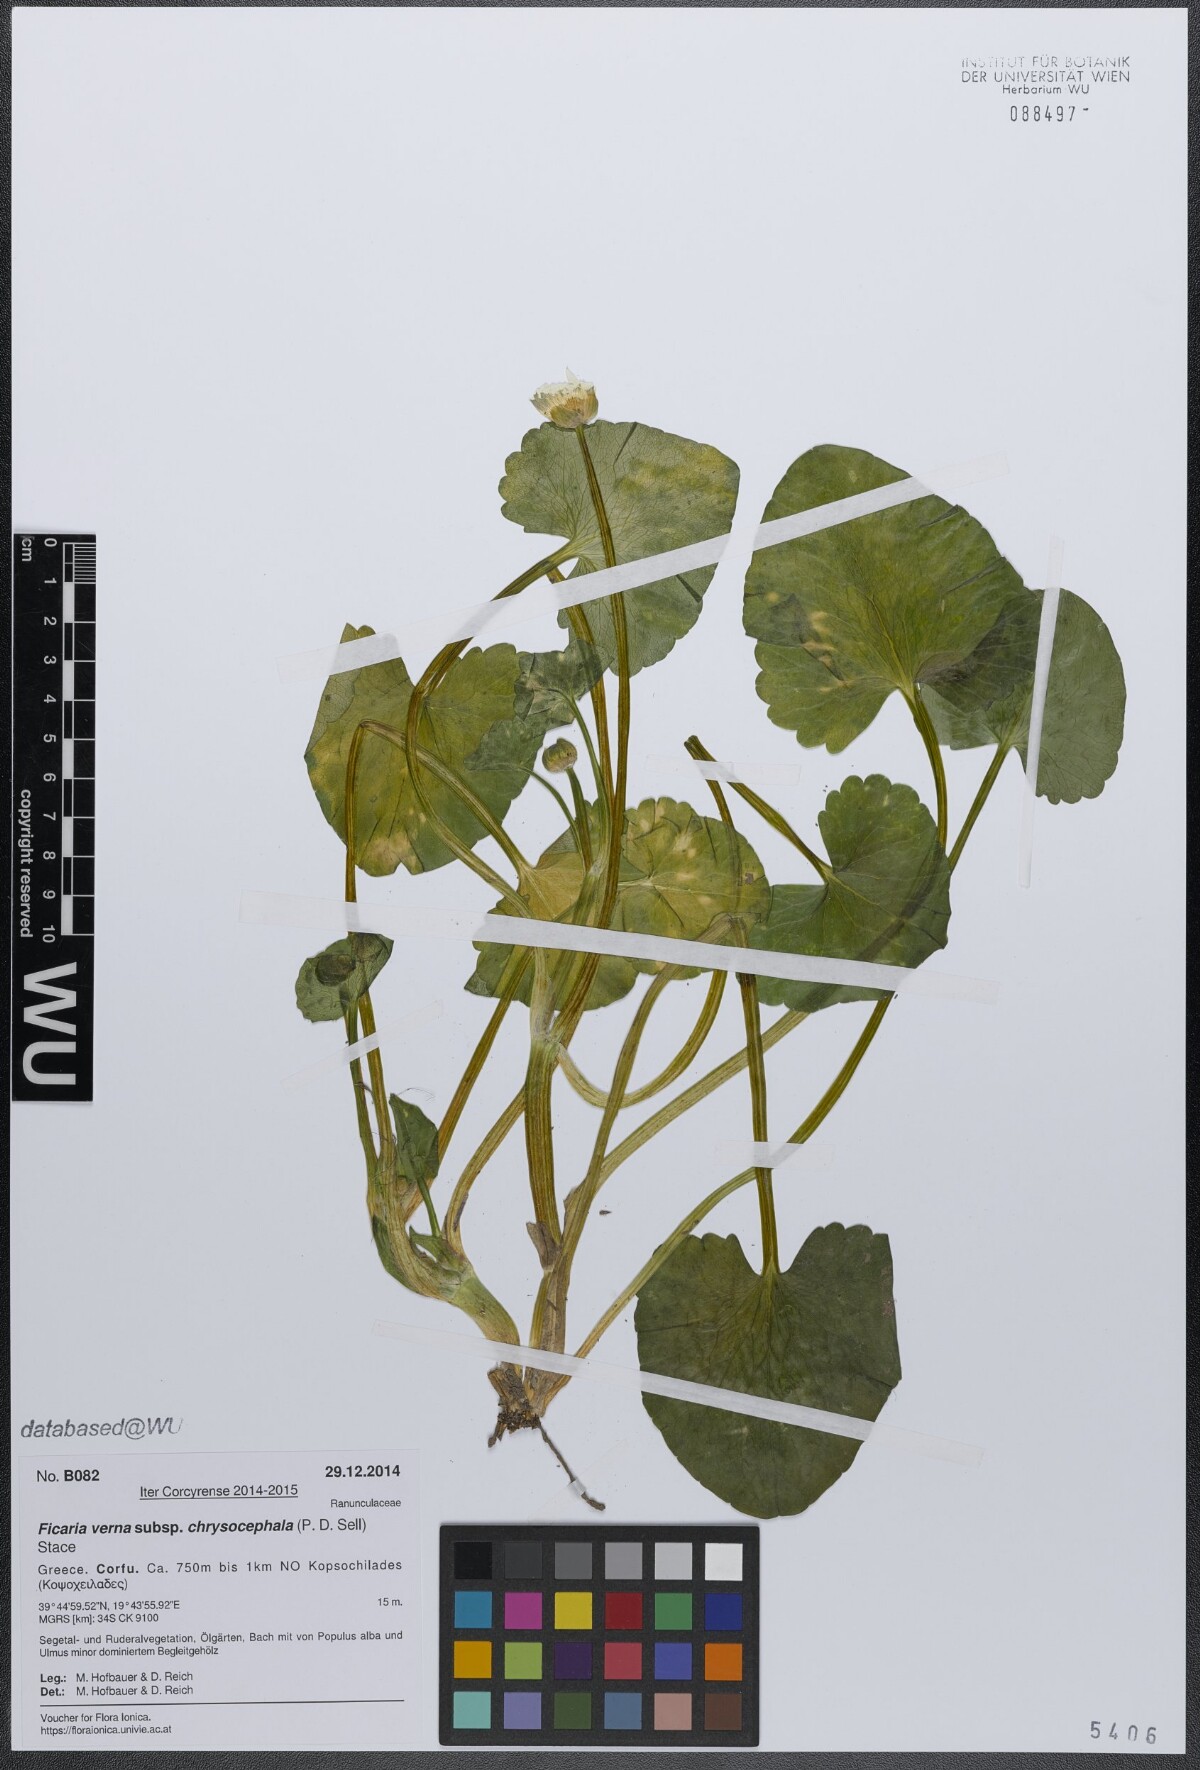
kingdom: Plantae
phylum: Tracheophyta
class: Magnoliopsida
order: Ranunculales
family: Ranunculaceae
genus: Ficaria
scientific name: Ficaria chrysocephala
